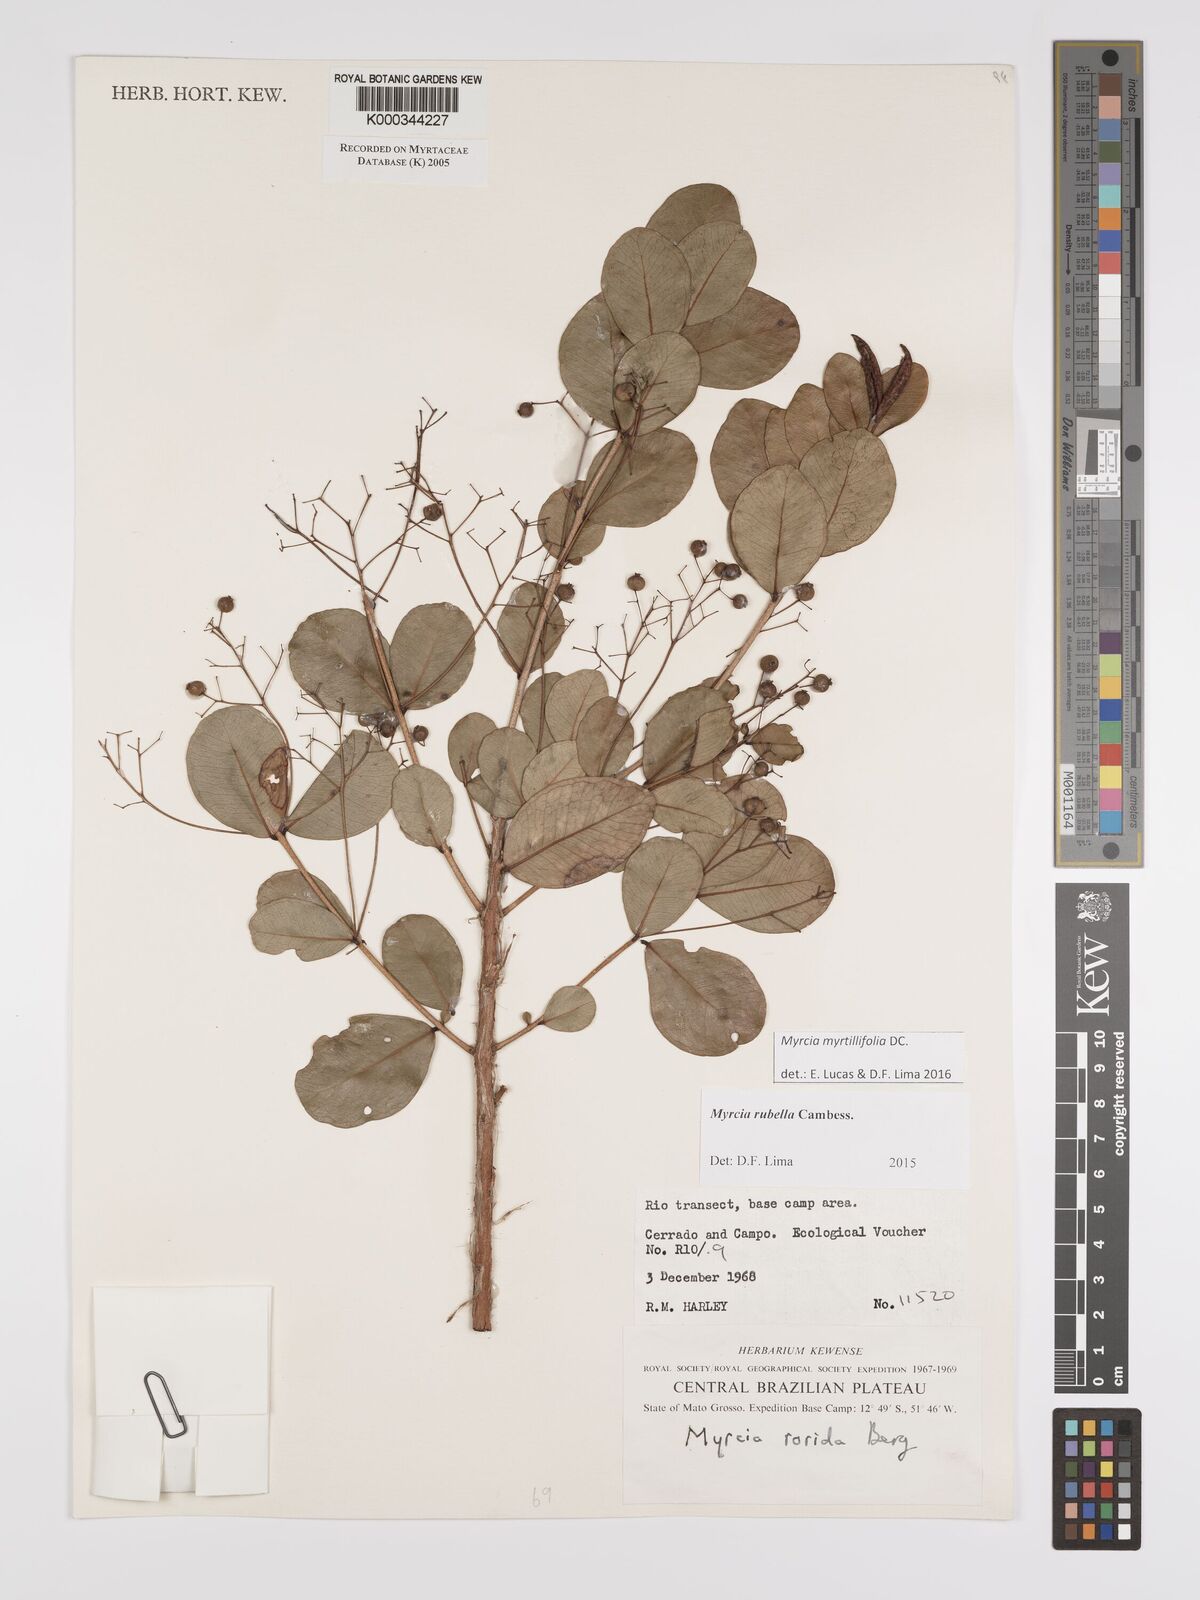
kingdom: Plantae
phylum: Tracheophyta
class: Magnoliopsida
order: Myrtales
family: Myrtaceae
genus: Myrcia
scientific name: Myrcia guianensis
